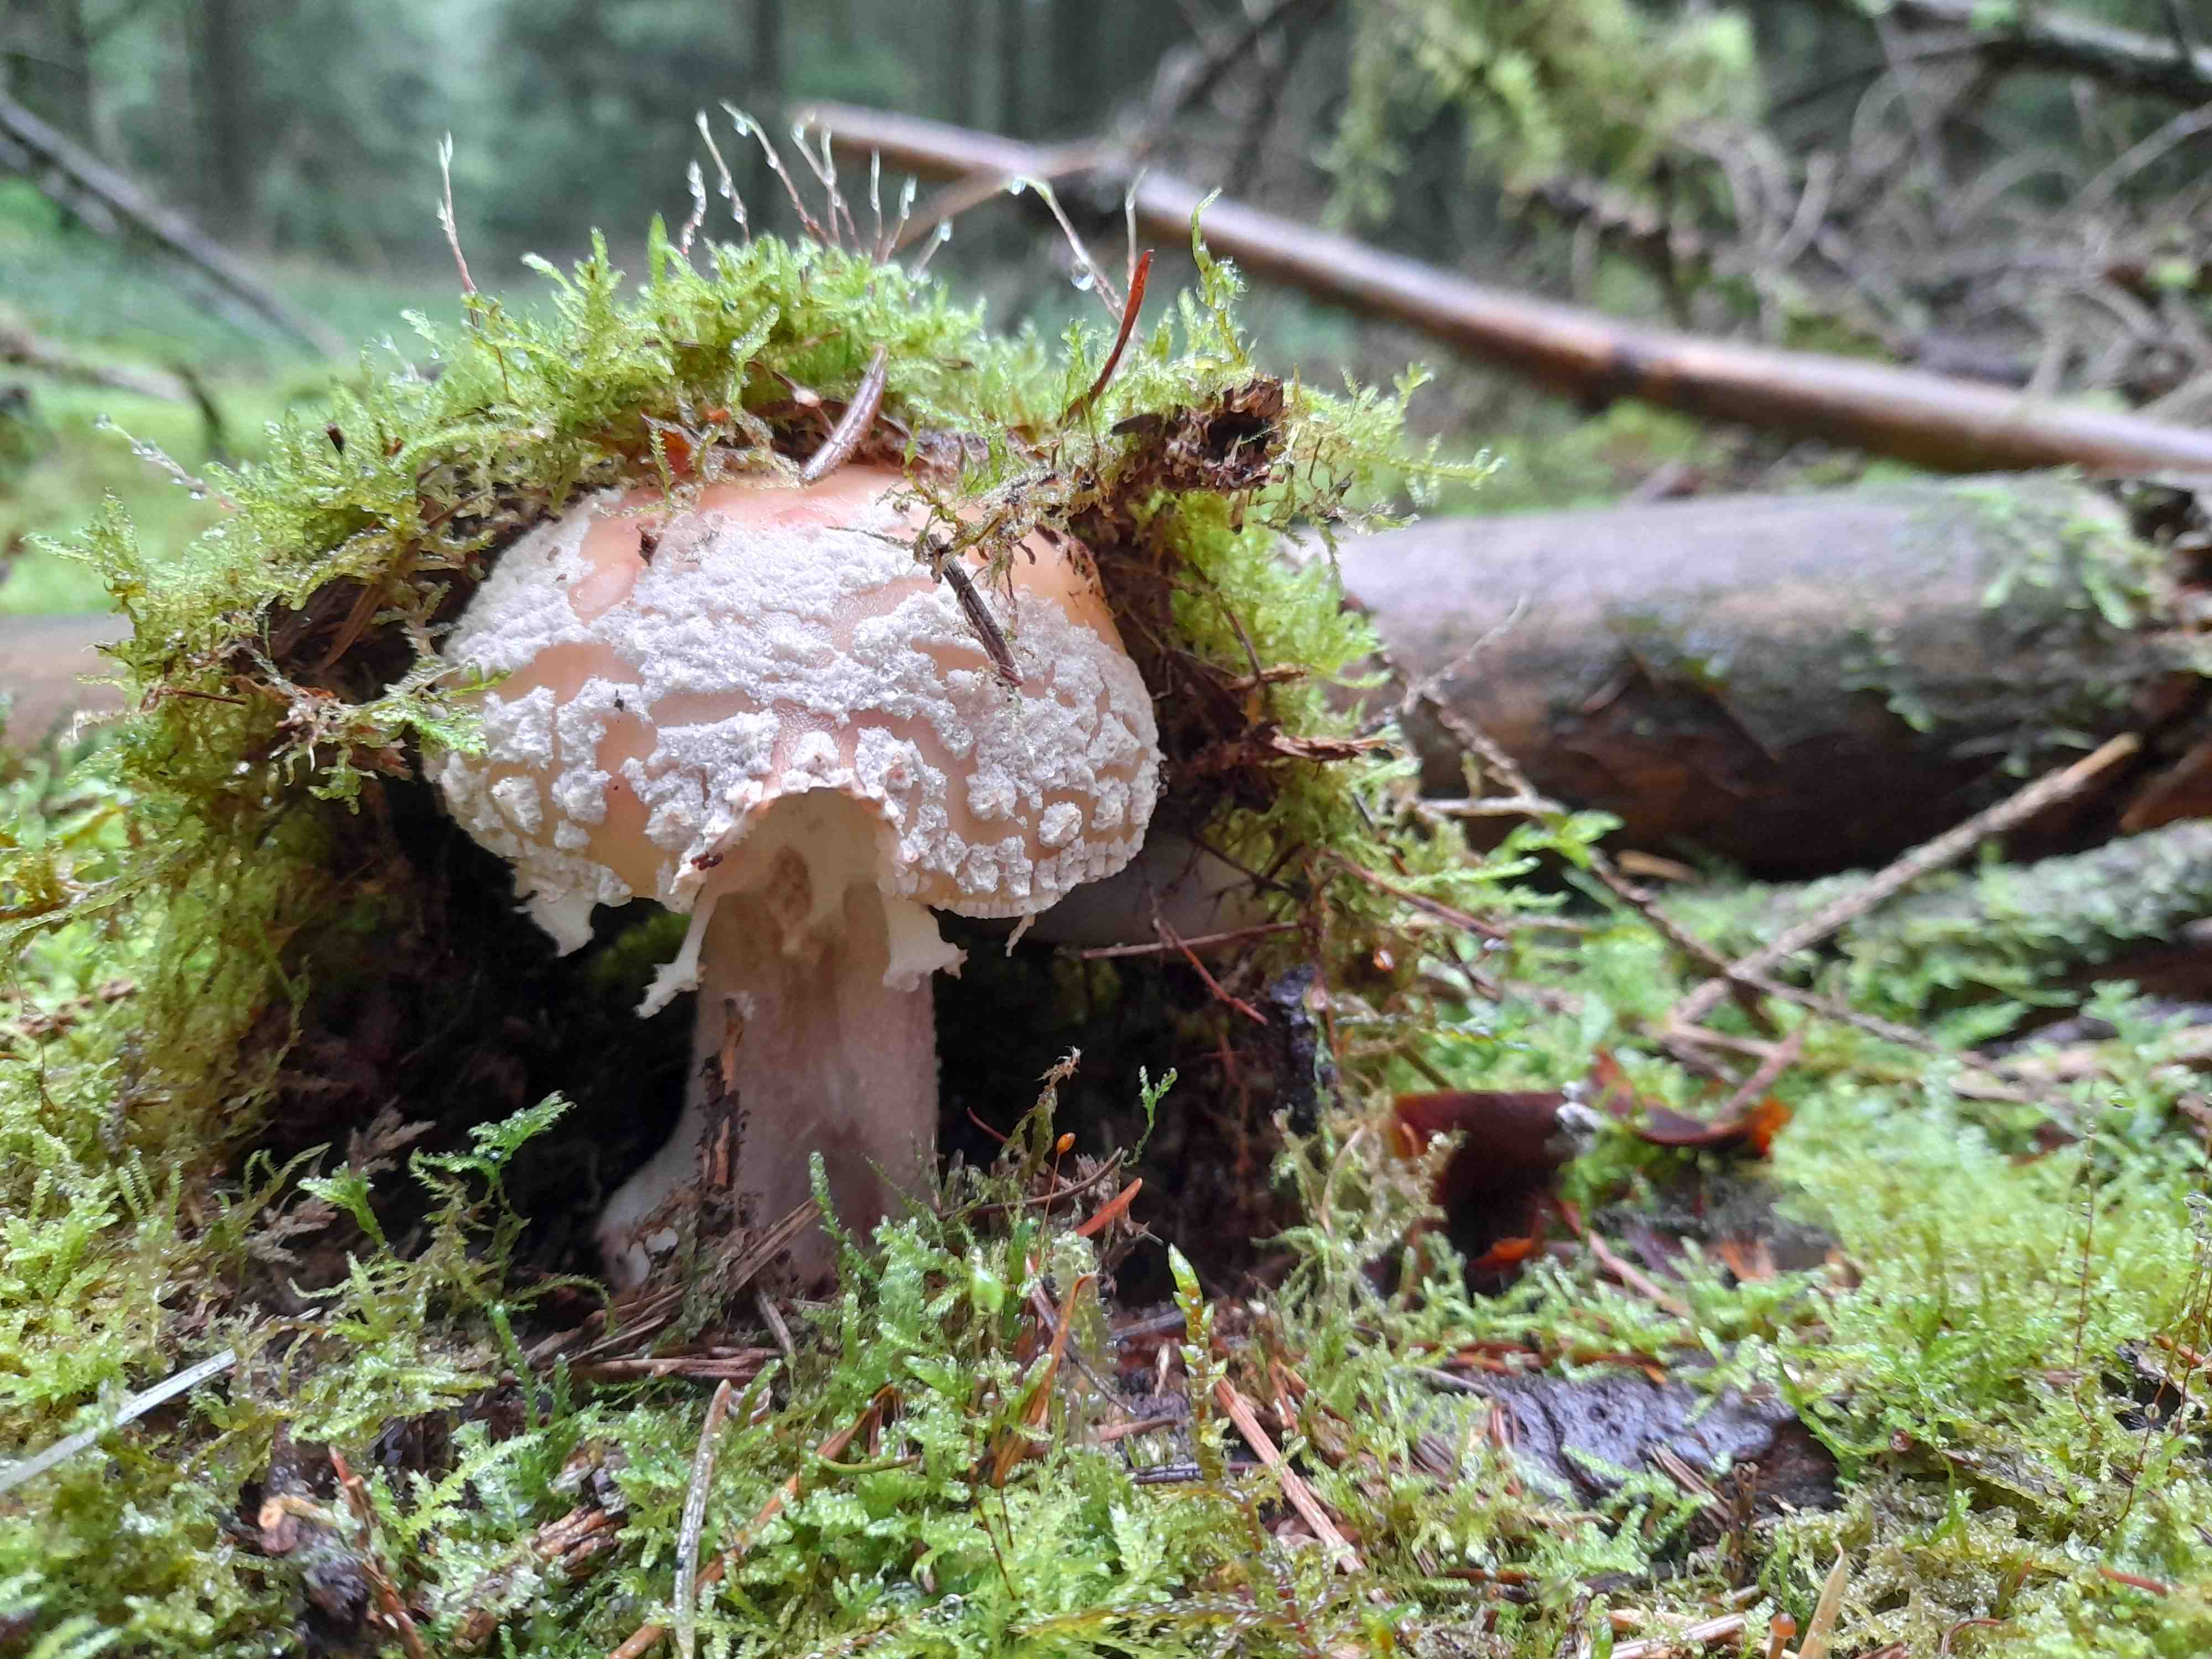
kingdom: Fungi
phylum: Basidiomycota
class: Agaricomycetes
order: Agaricales
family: Amanitaceae
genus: Amanita
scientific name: Amanita rubescens
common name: rødmende fluesvamp
